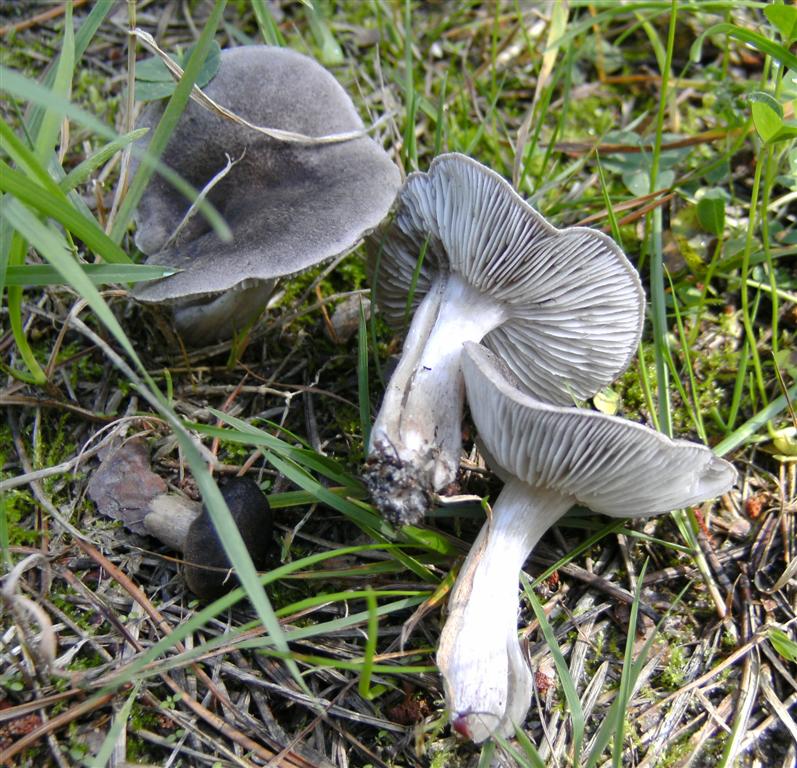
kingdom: Fungi
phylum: Basidiomycota
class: Agaricomycetes
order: Agaricales
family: Tricholomataceae
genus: Tricholoma
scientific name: Tricholoma terreum
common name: jordfarvet ridderhat
